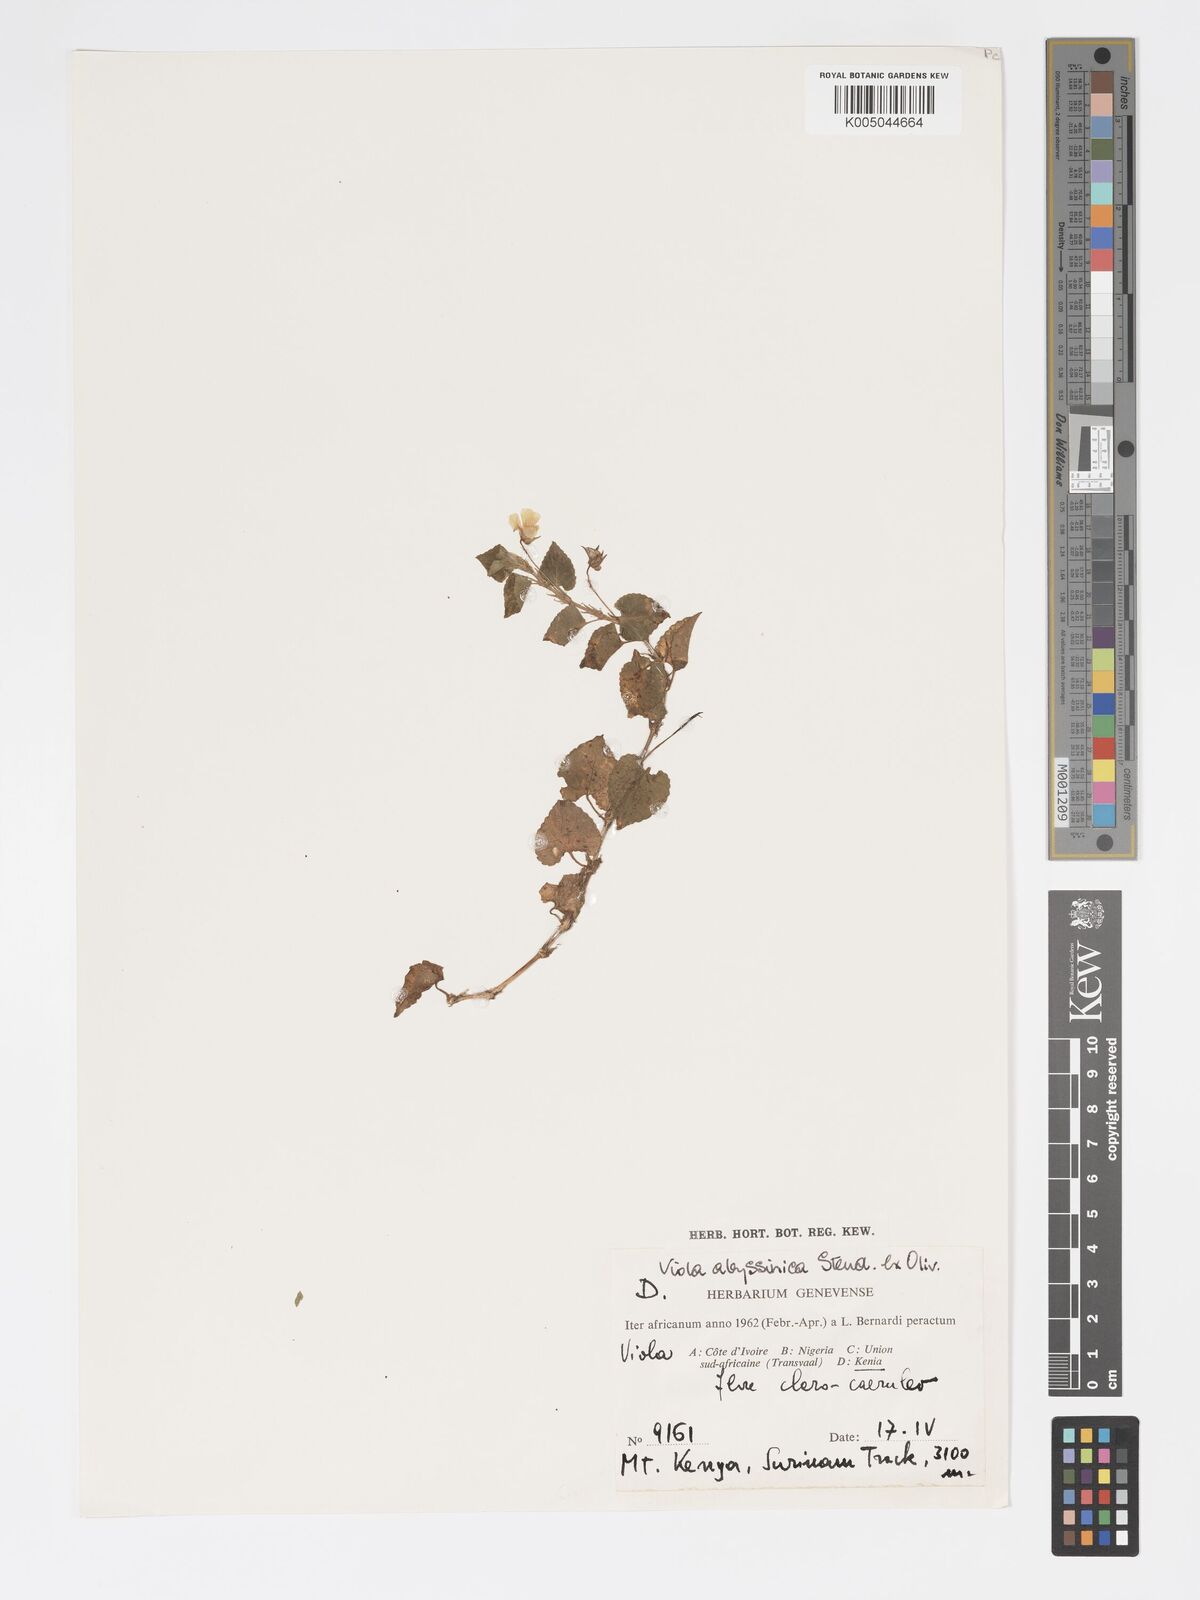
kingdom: Plantae
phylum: Tracheophyta
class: Magnoliopsida
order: Malpighiales
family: Violaceae
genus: Viola
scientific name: Viola abyssinica
